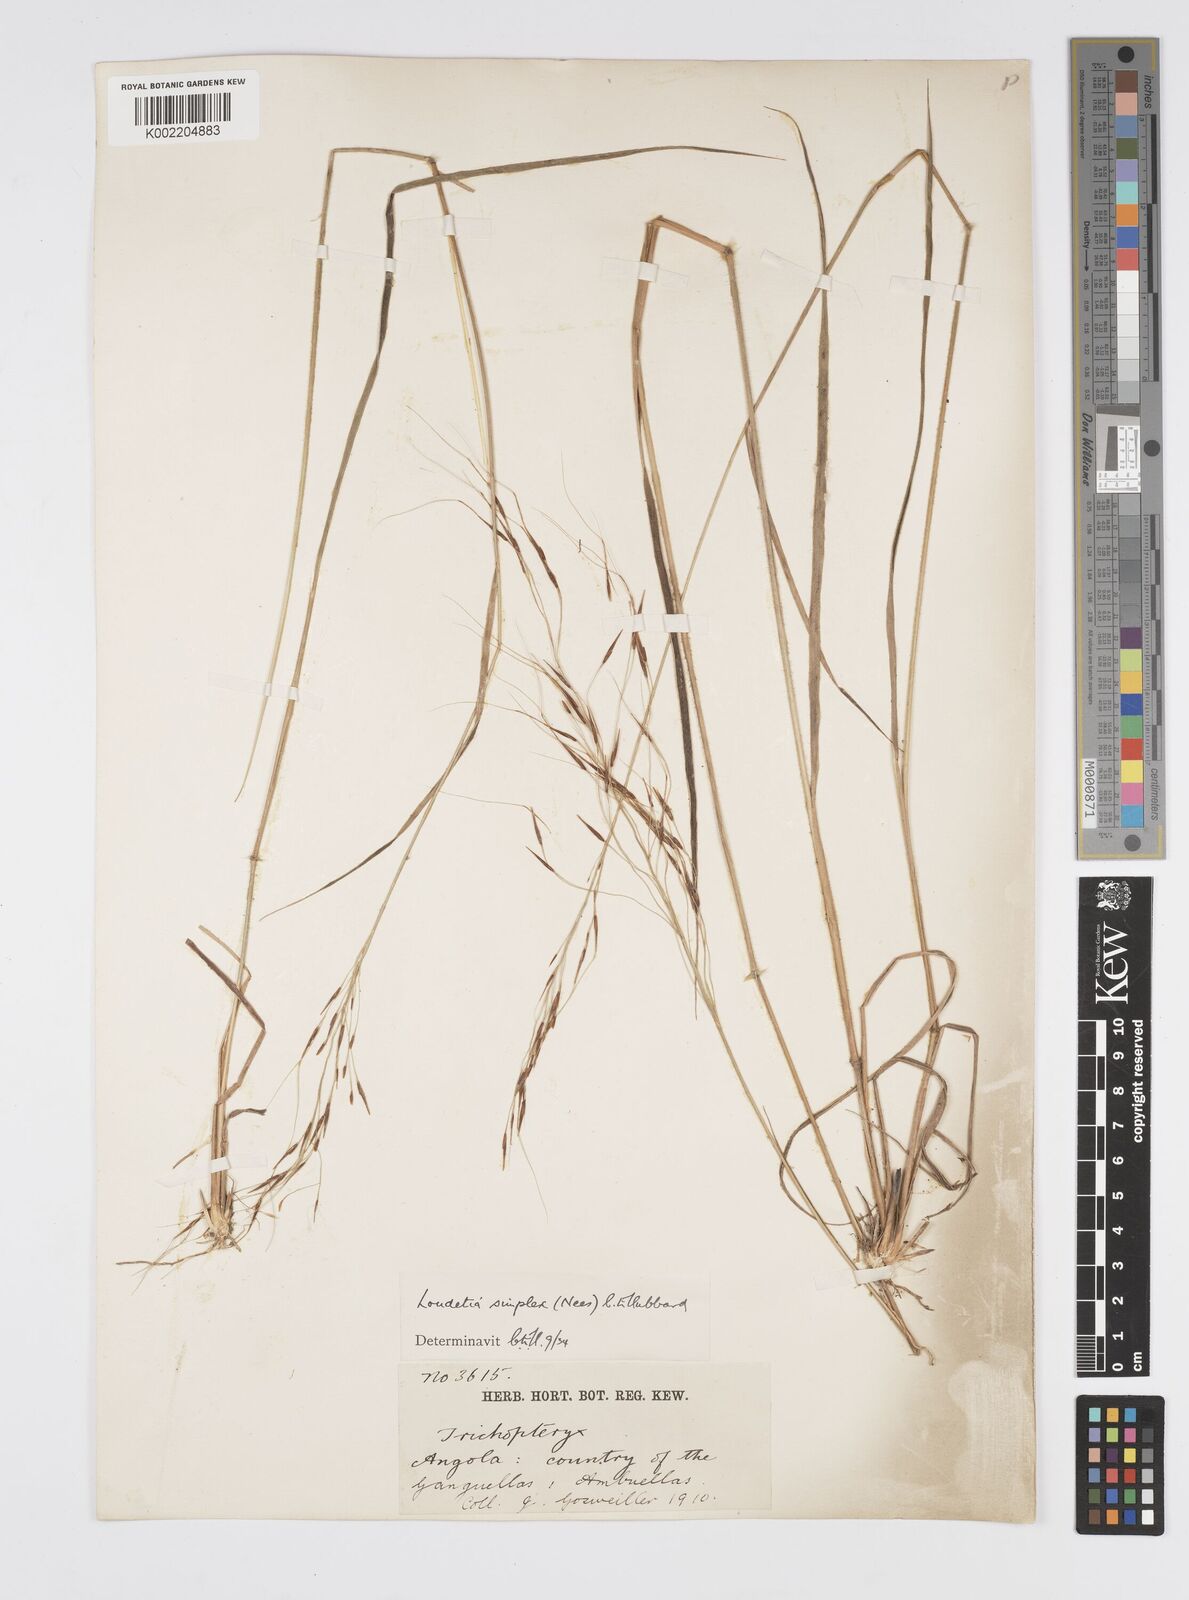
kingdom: Plantae
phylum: Tracheophyta
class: Liliopsida
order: Poales
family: Poaceae
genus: Loudetia
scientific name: Loudetia simplex
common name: Common russet grass
